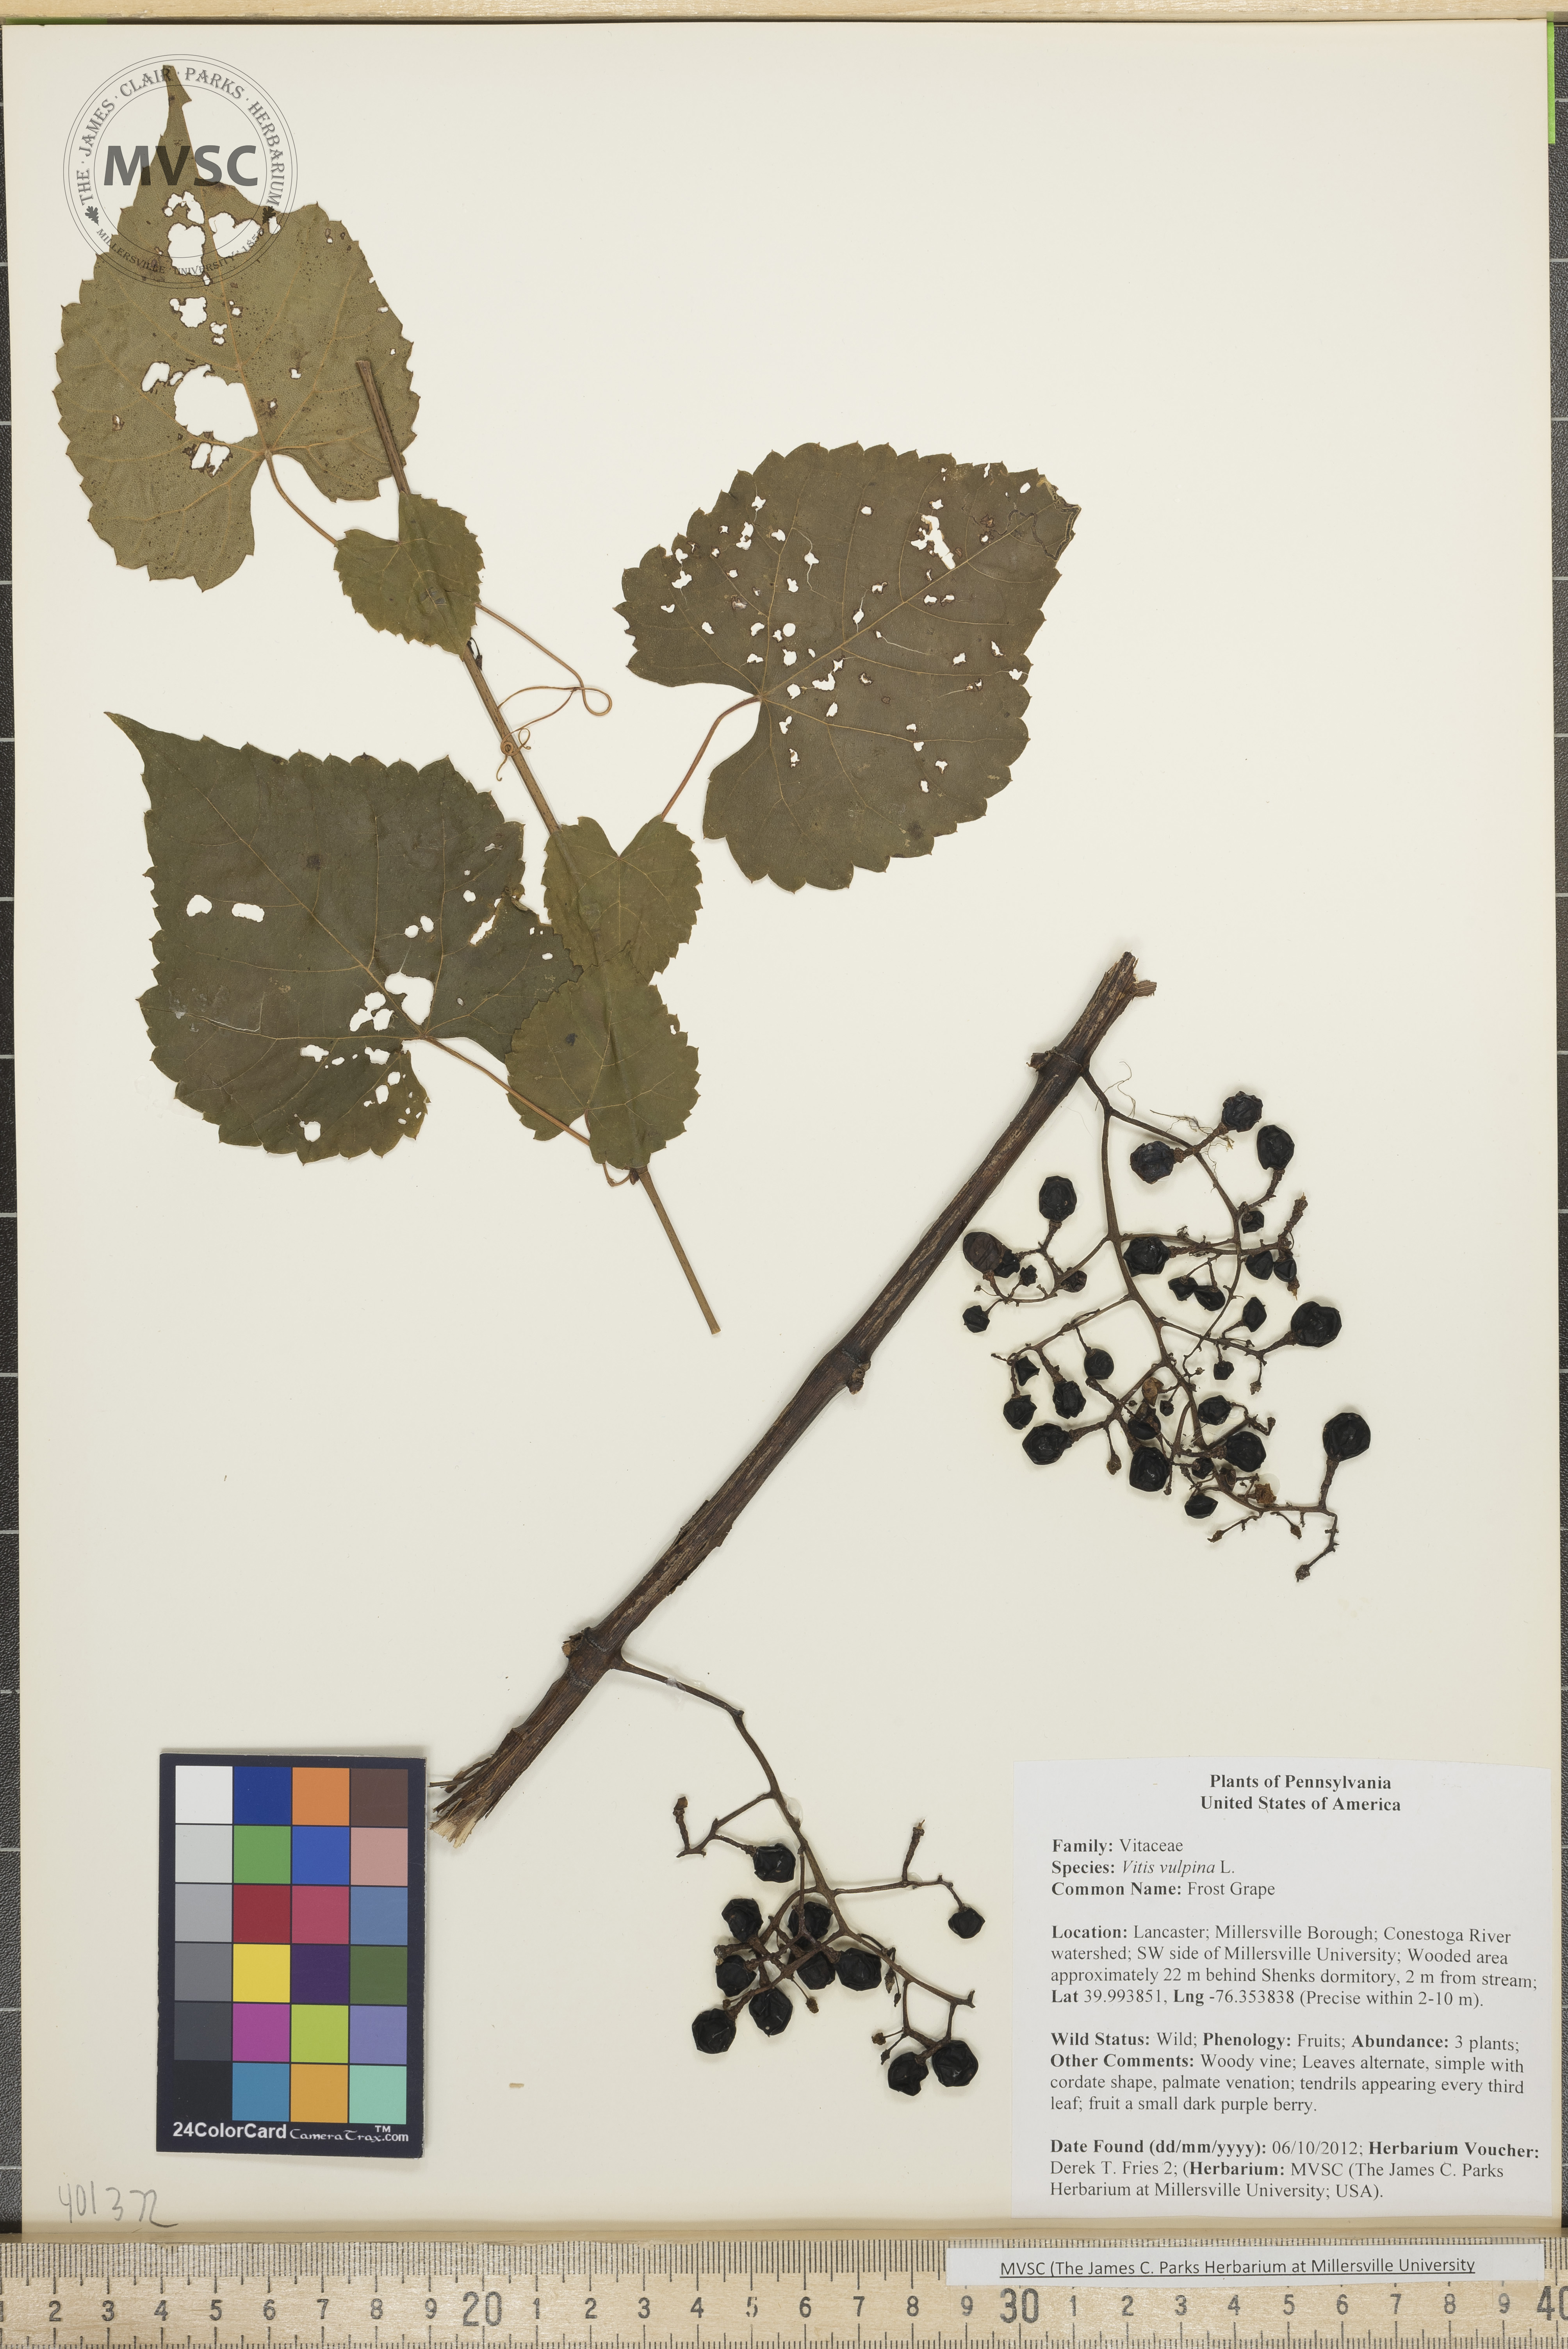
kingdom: Plantae
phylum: Tracheophyta
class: Magnoliopsida
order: Vitales
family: Vitaceae
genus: Vitis
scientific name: Vitis vulpina
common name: Frost Grape
